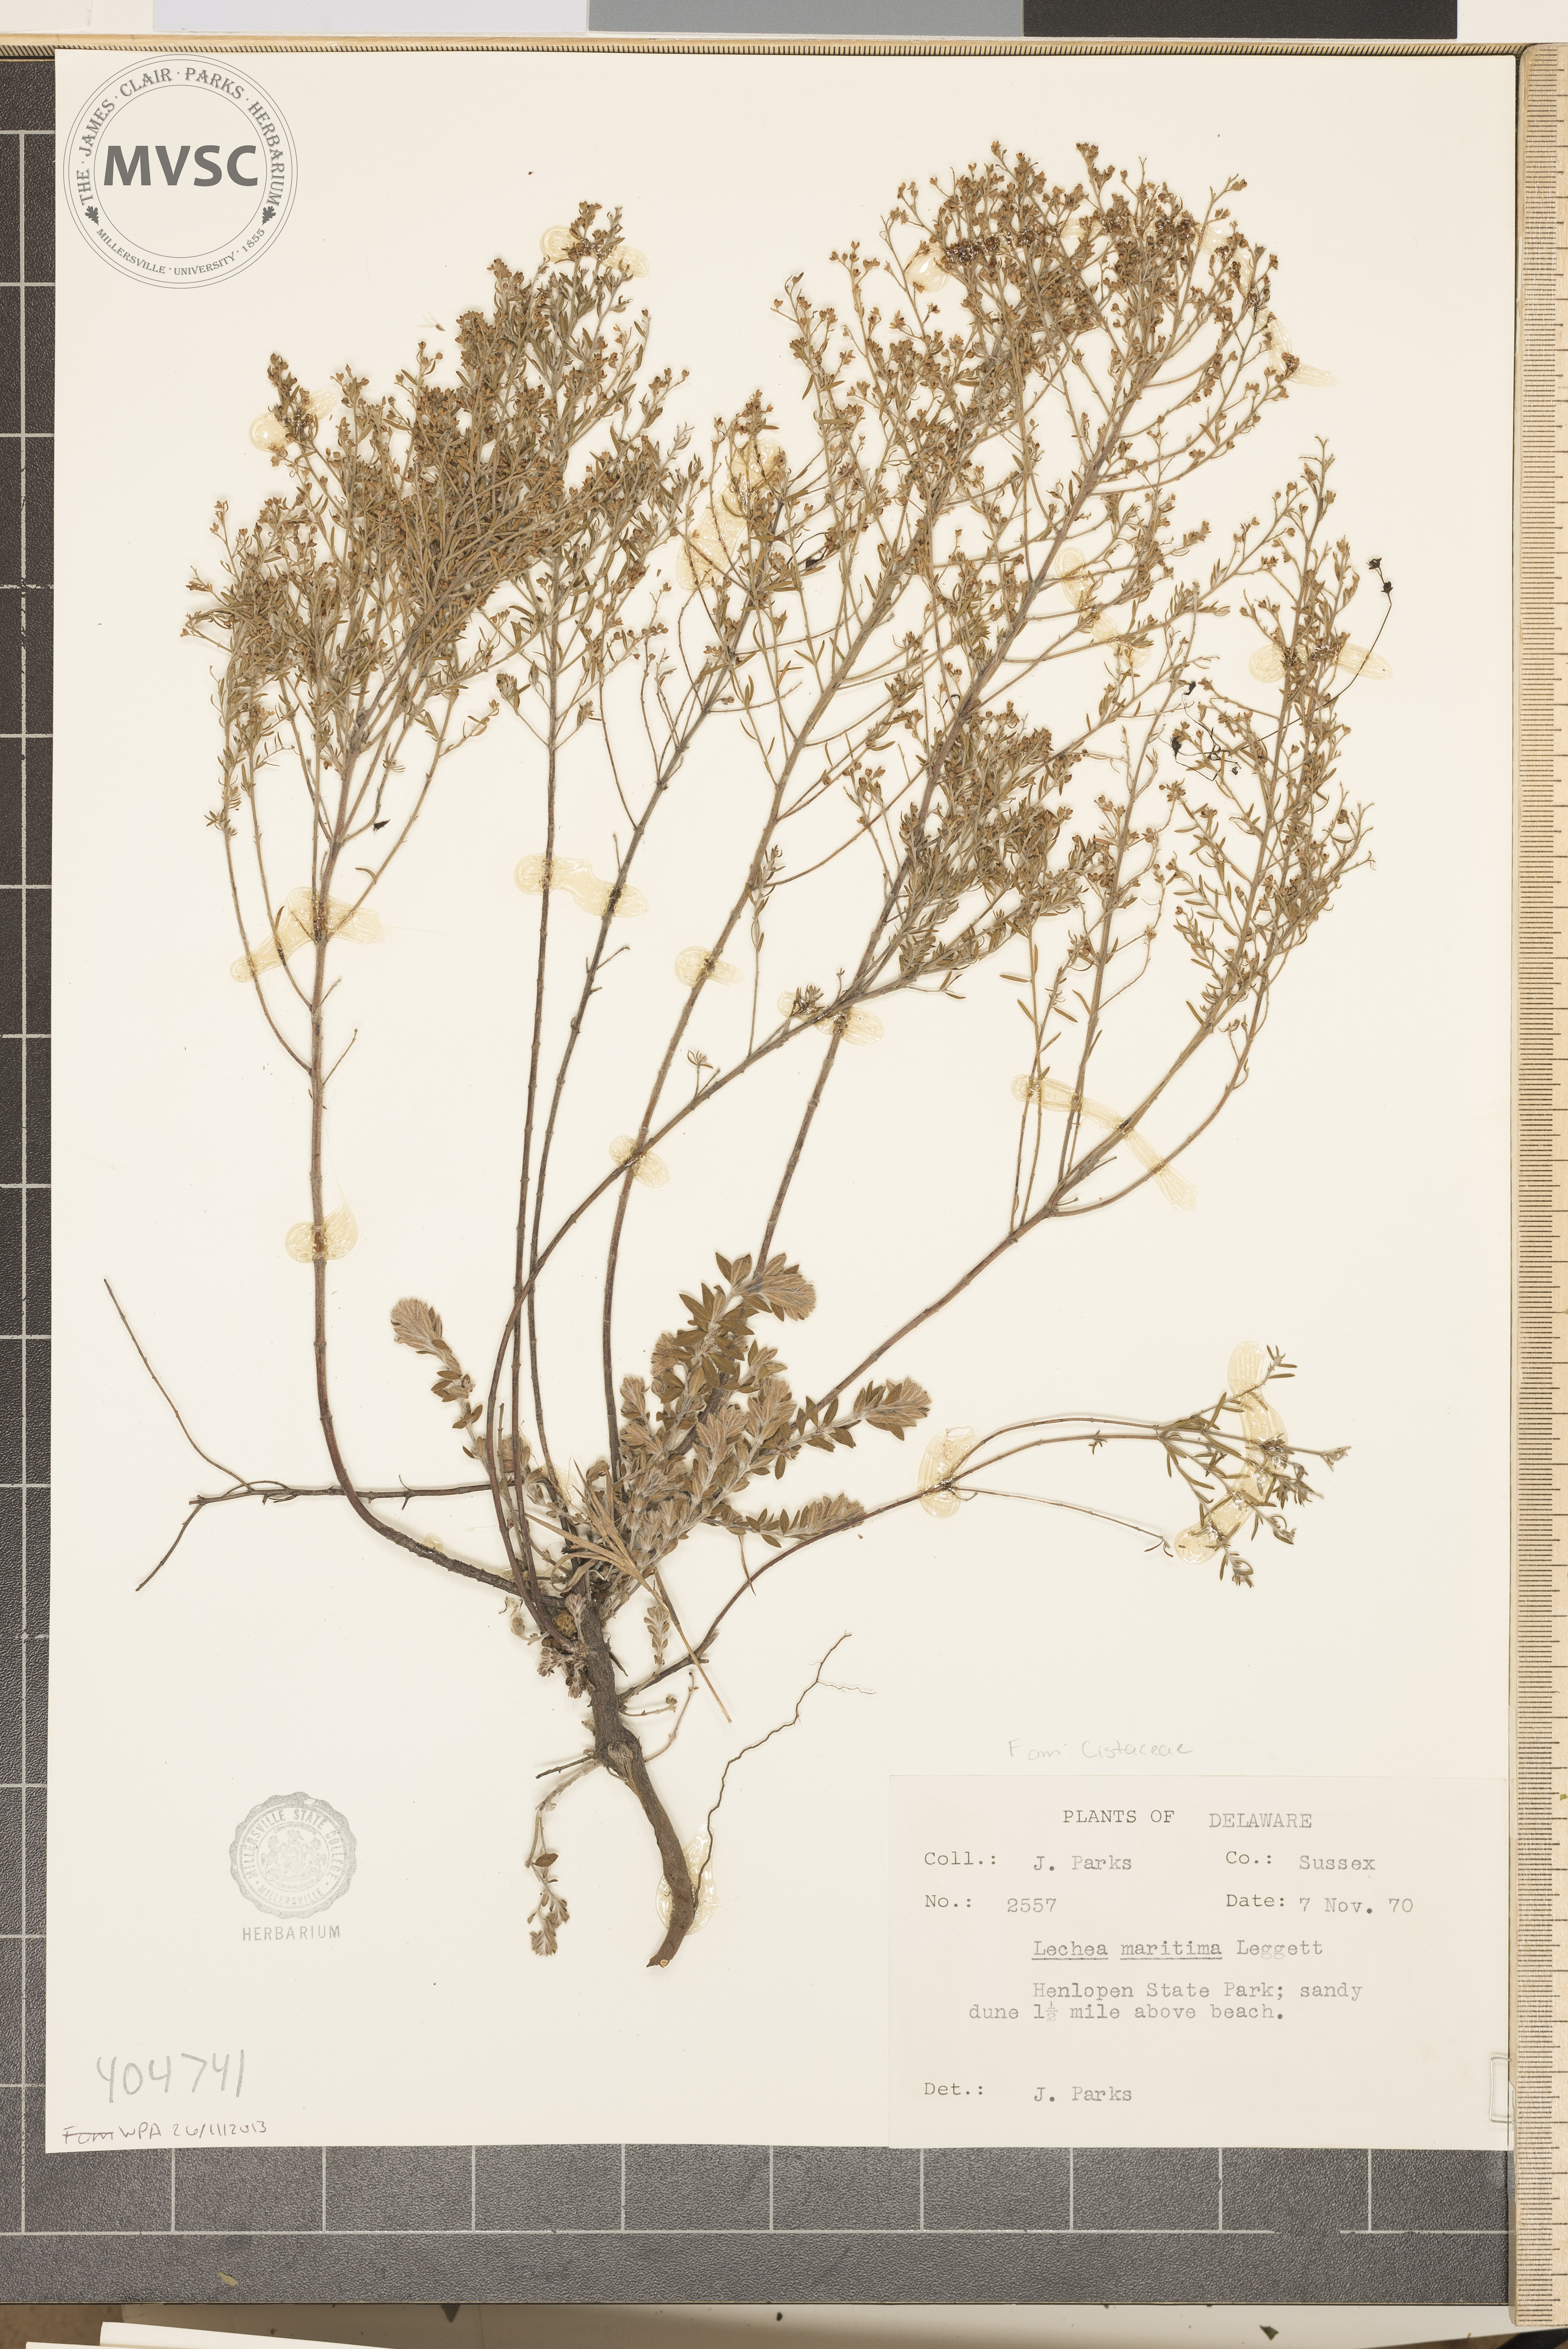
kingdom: Plantae
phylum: Tracheophyta
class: Magnoliopsida
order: Malvales
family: Cistaceae
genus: Lechea
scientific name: Lechea maritima
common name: Beach pinweed
